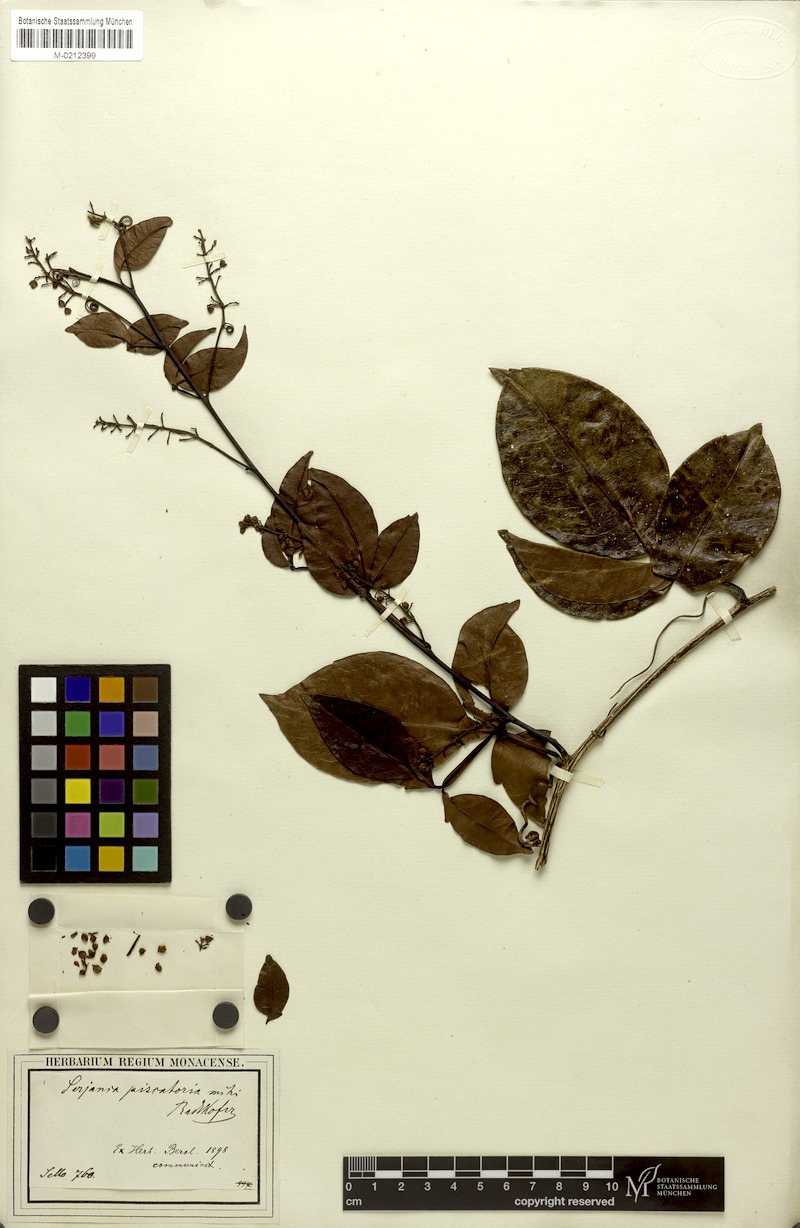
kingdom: Plantae
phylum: Tracheophyta
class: Magnoliopsida
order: Sapindales
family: Sapindaceae
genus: Serjania
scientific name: Serjania piscatoria
